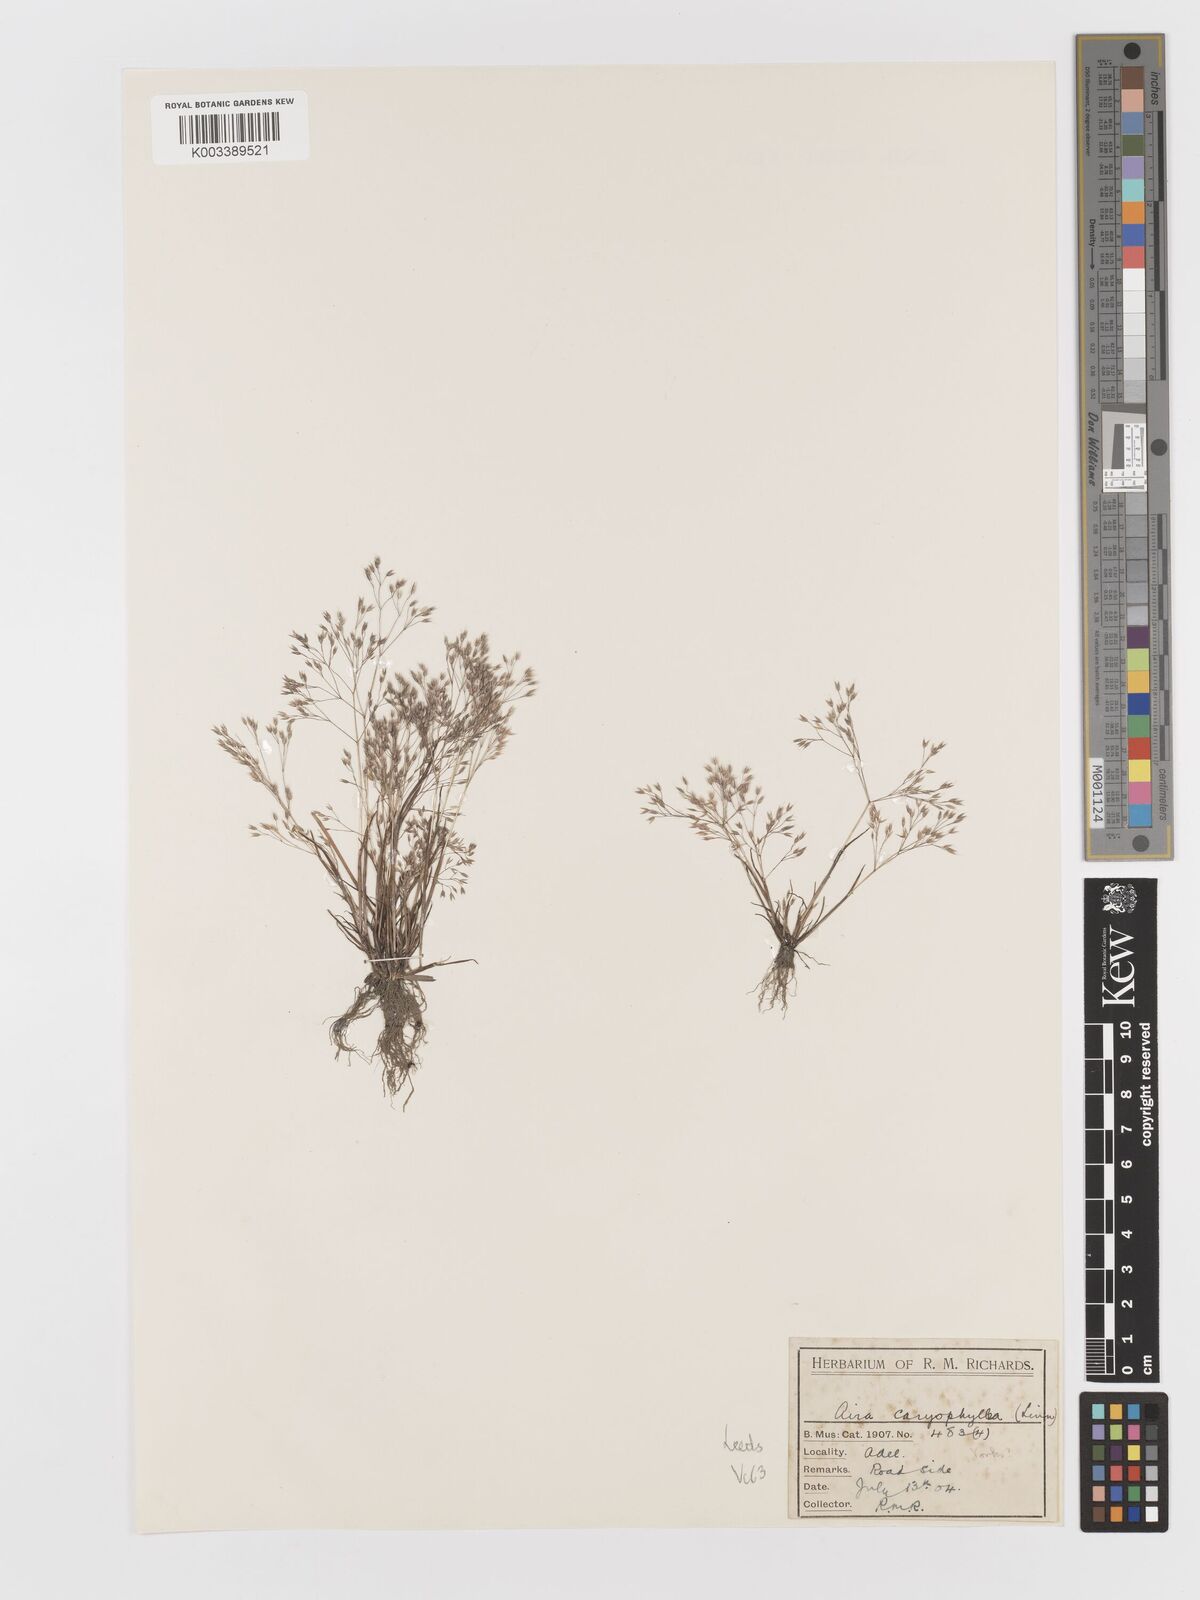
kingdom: Plantae
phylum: Tracheophyta
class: Liliopsida
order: Poales
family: Poaceae
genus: Aira
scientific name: Aira caryophyllea
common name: Silver hairgrass
